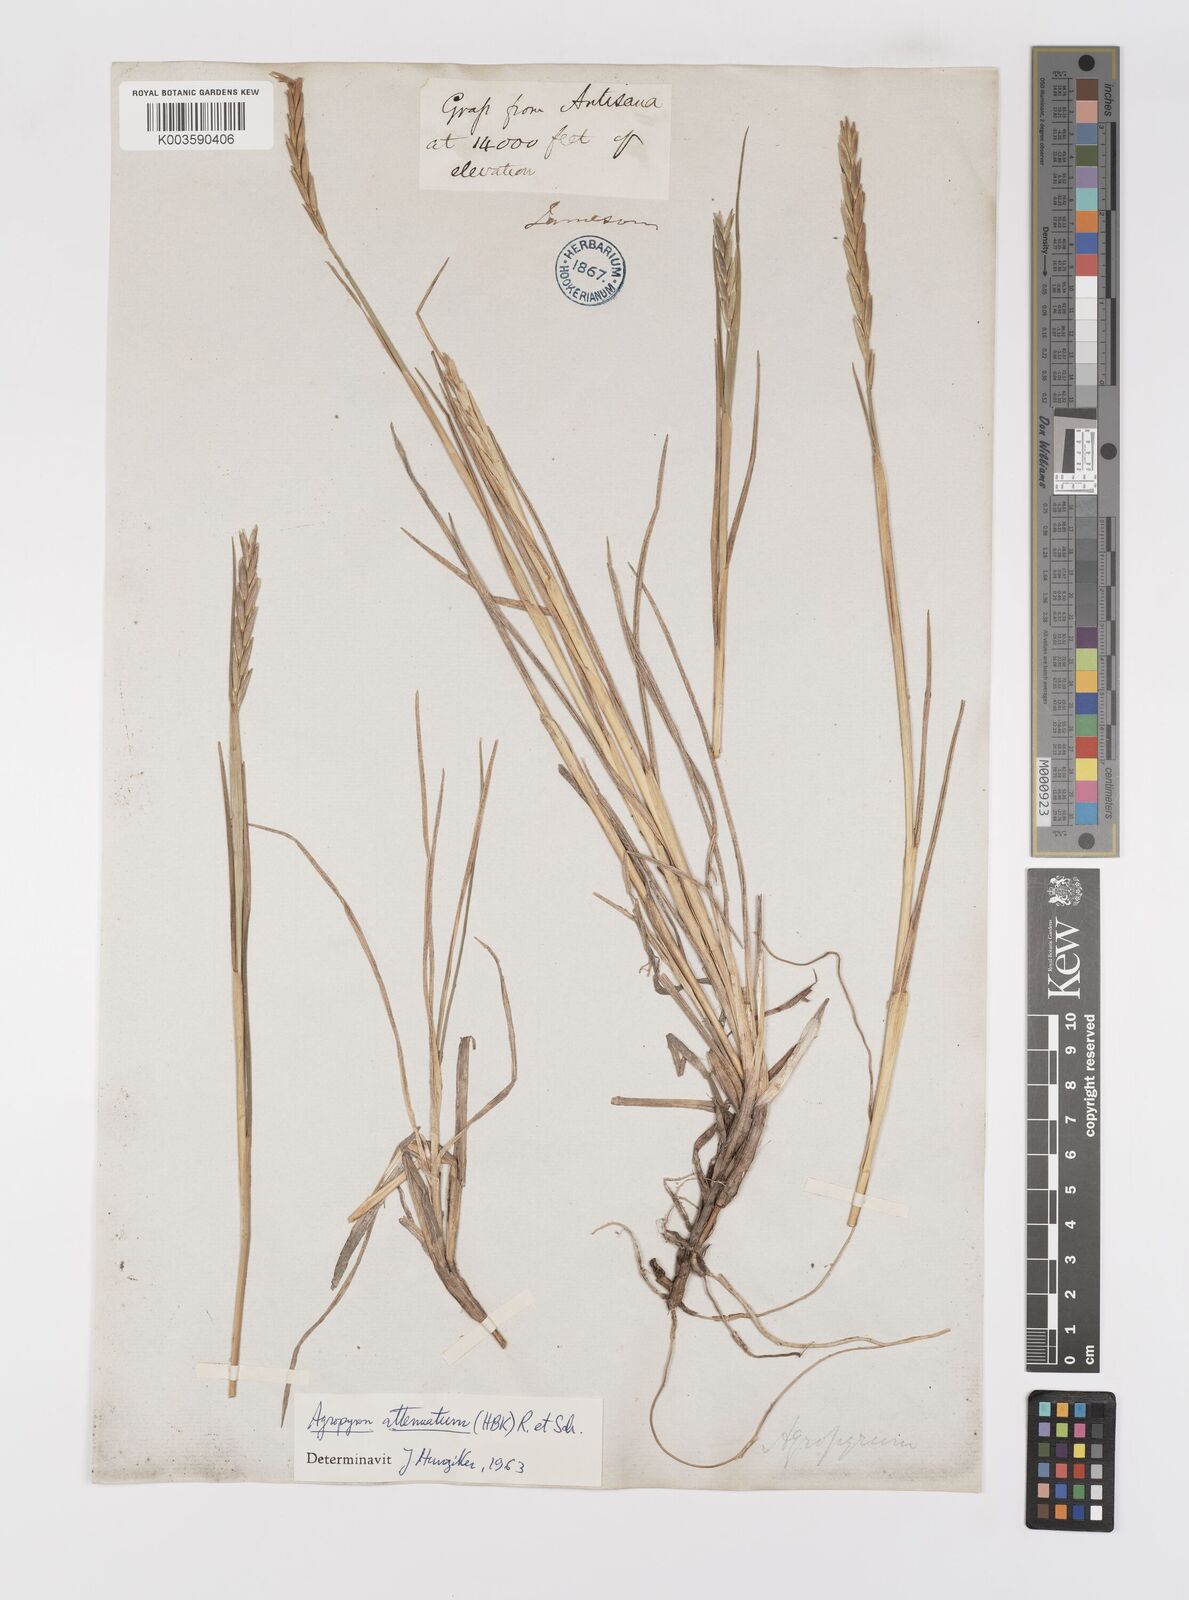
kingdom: Plantae
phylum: Tracheophyta
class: Liliopsida
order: Poales
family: Poaceae
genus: Elymus
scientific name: Elymus cordilleranus
